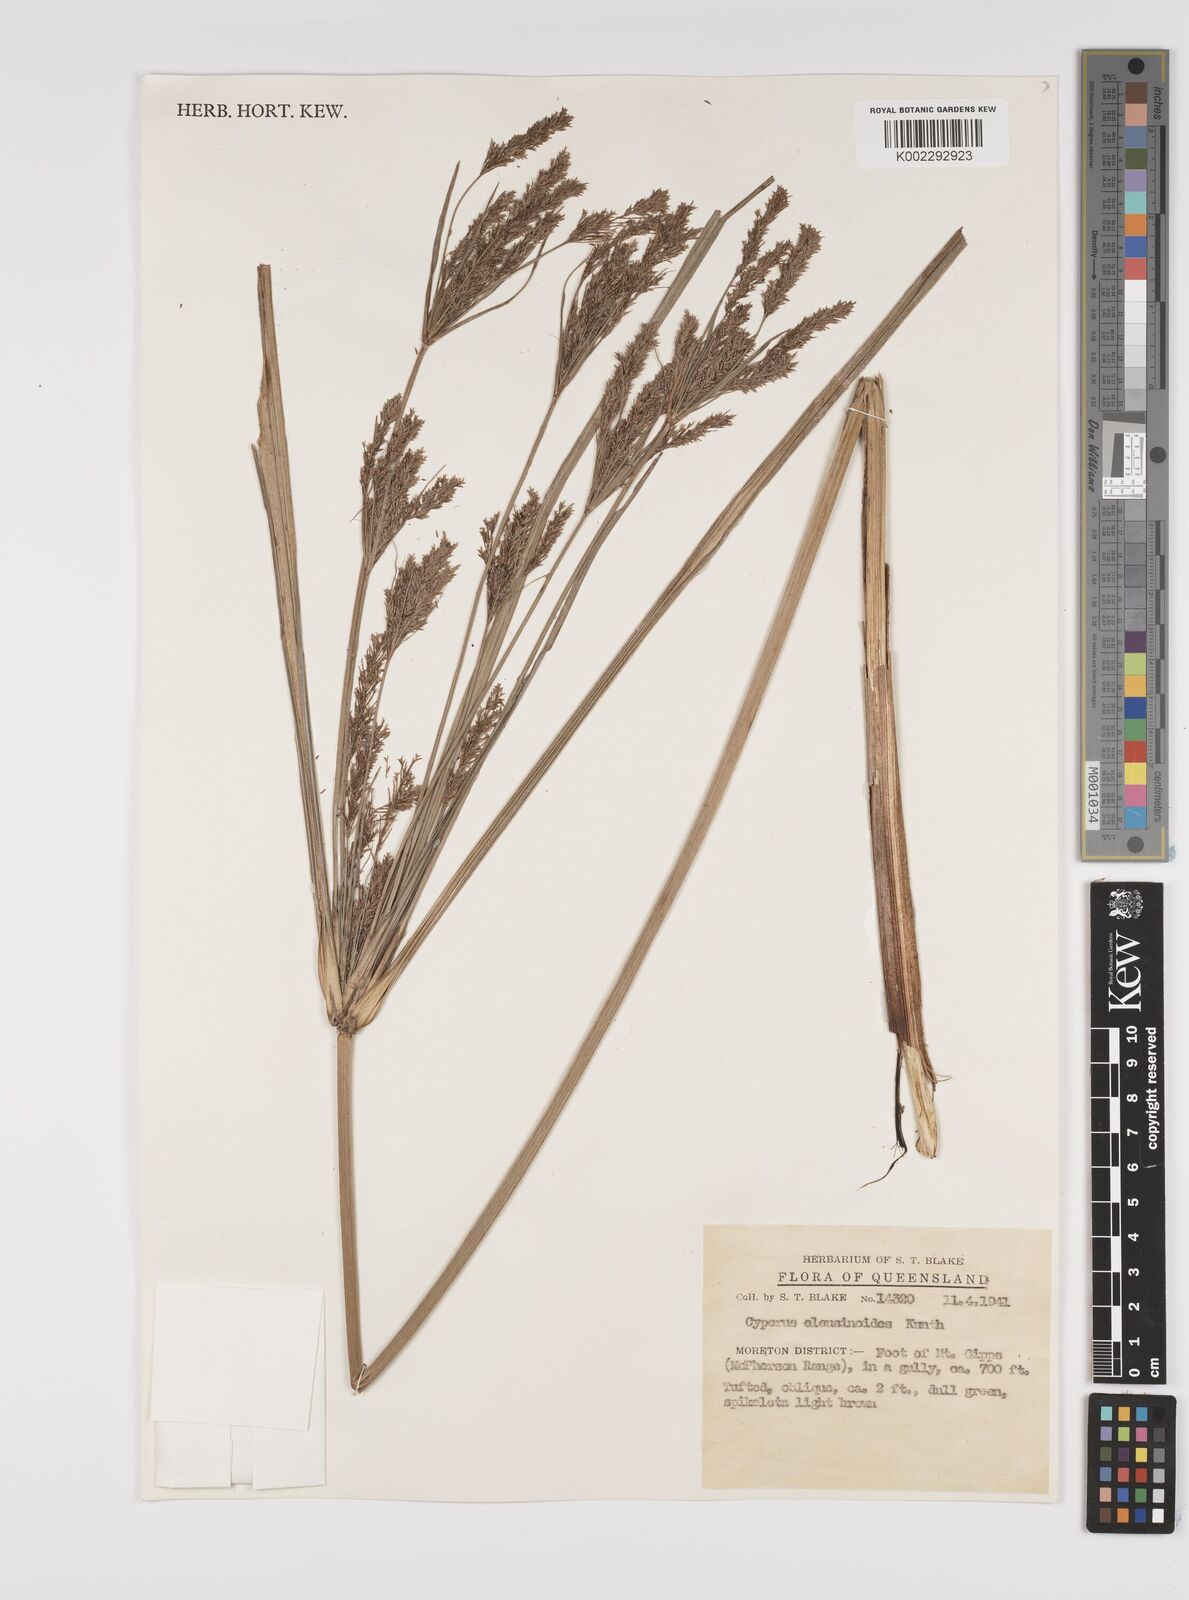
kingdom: Plantae
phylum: Tracheophyta
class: Liliopsida
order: Poales
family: Cyperaceae
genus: Cyperus
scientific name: Cyperus nutans
